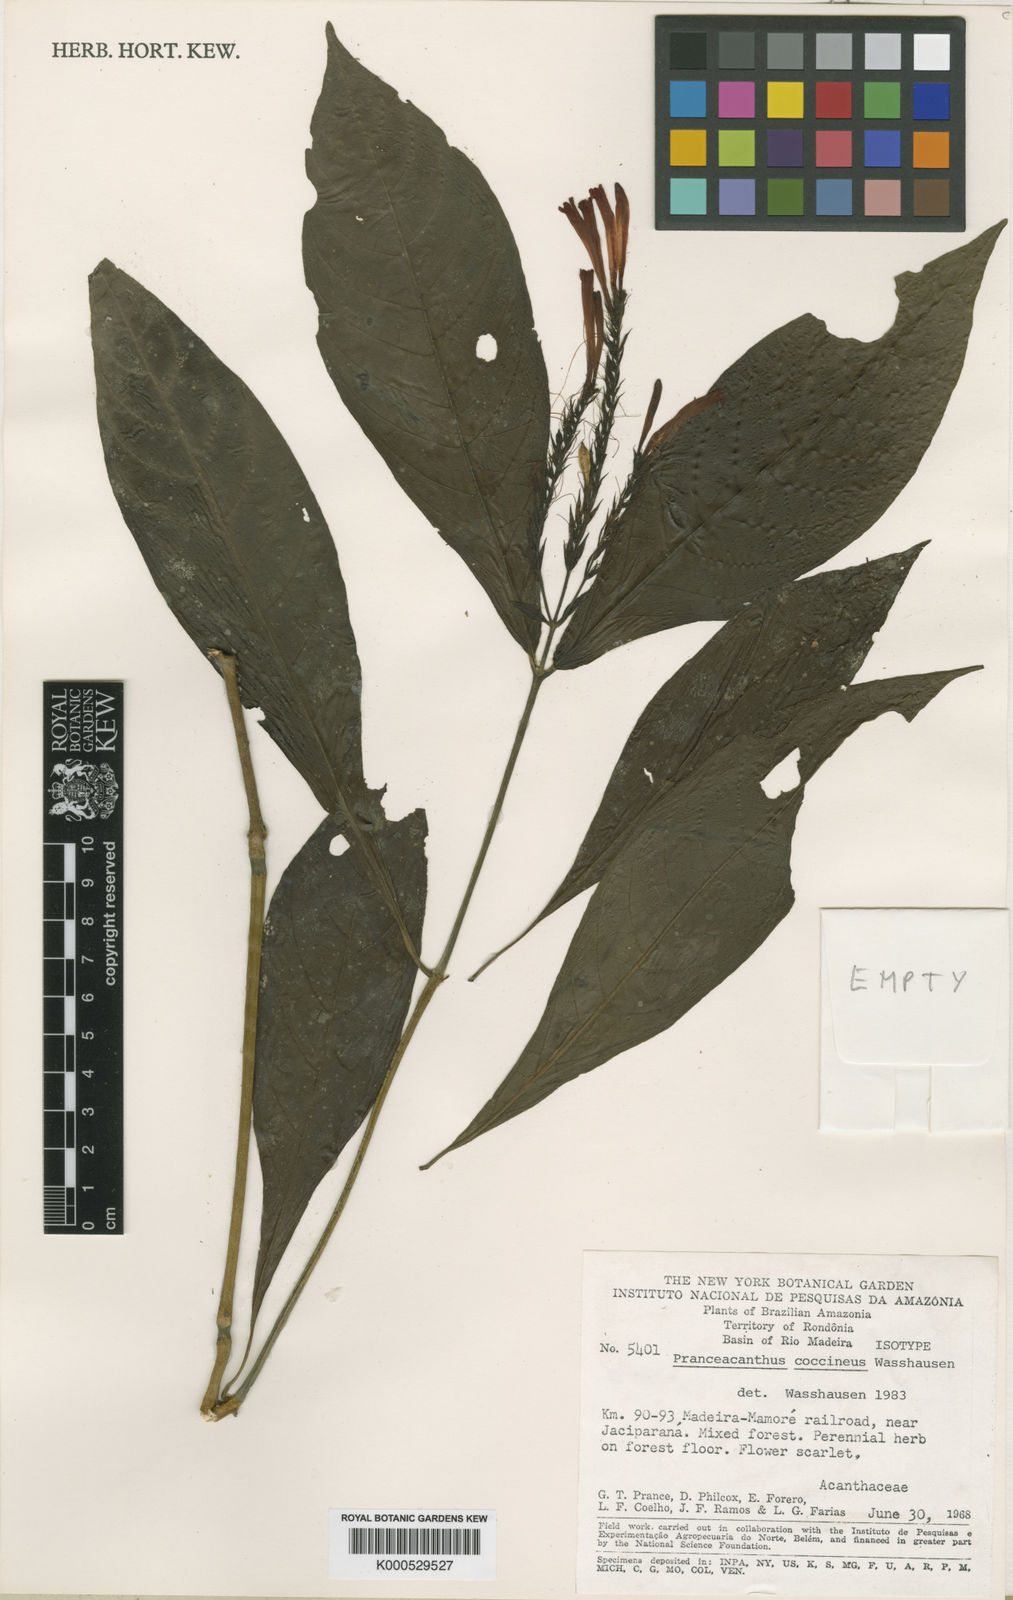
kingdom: Plantae
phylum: Tracheophyta
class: Magnoliopsida
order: Lamiales
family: Acanthaceae
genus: Pranceacanthus
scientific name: Pranceacanthus coccineus
